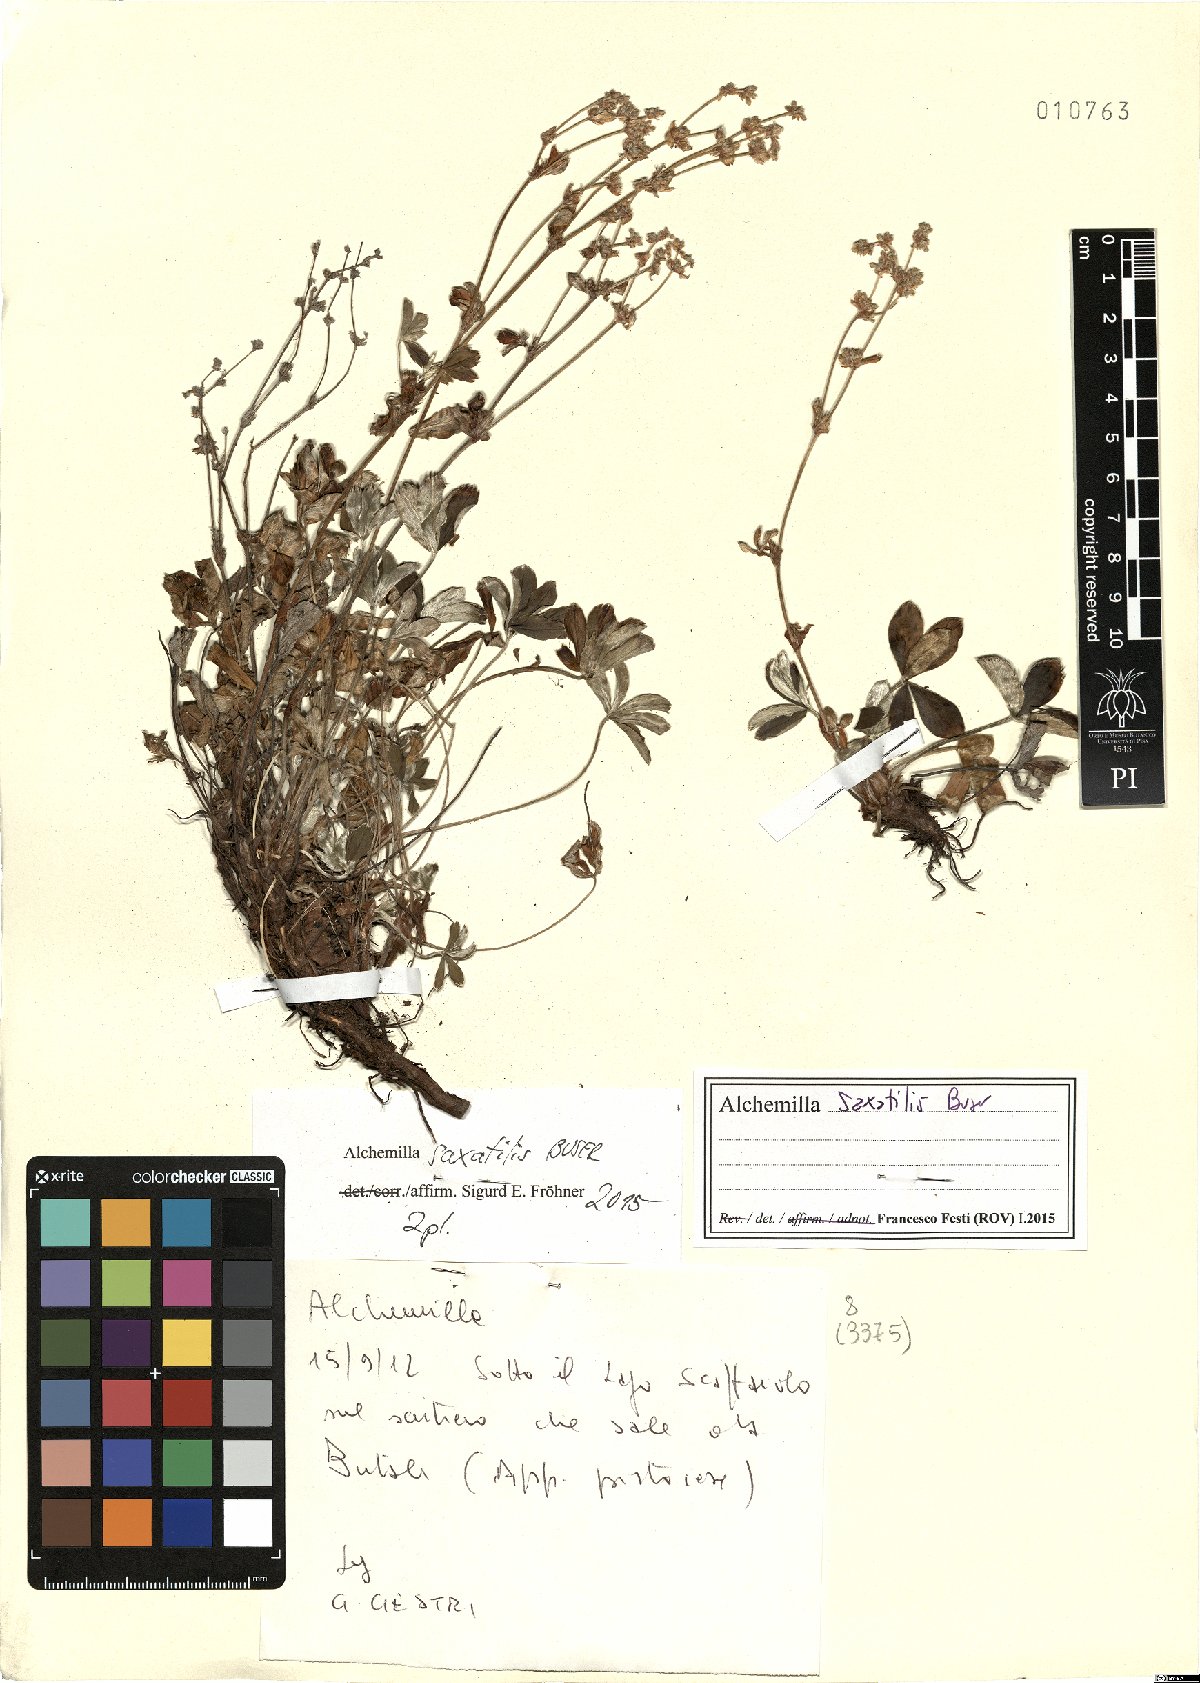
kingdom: Plantae
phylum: Tracheophyta
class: Magnoliopsida
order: Rosales
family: Rosaceae
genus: Alchemilla
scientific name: Alchemilla saxatilis
